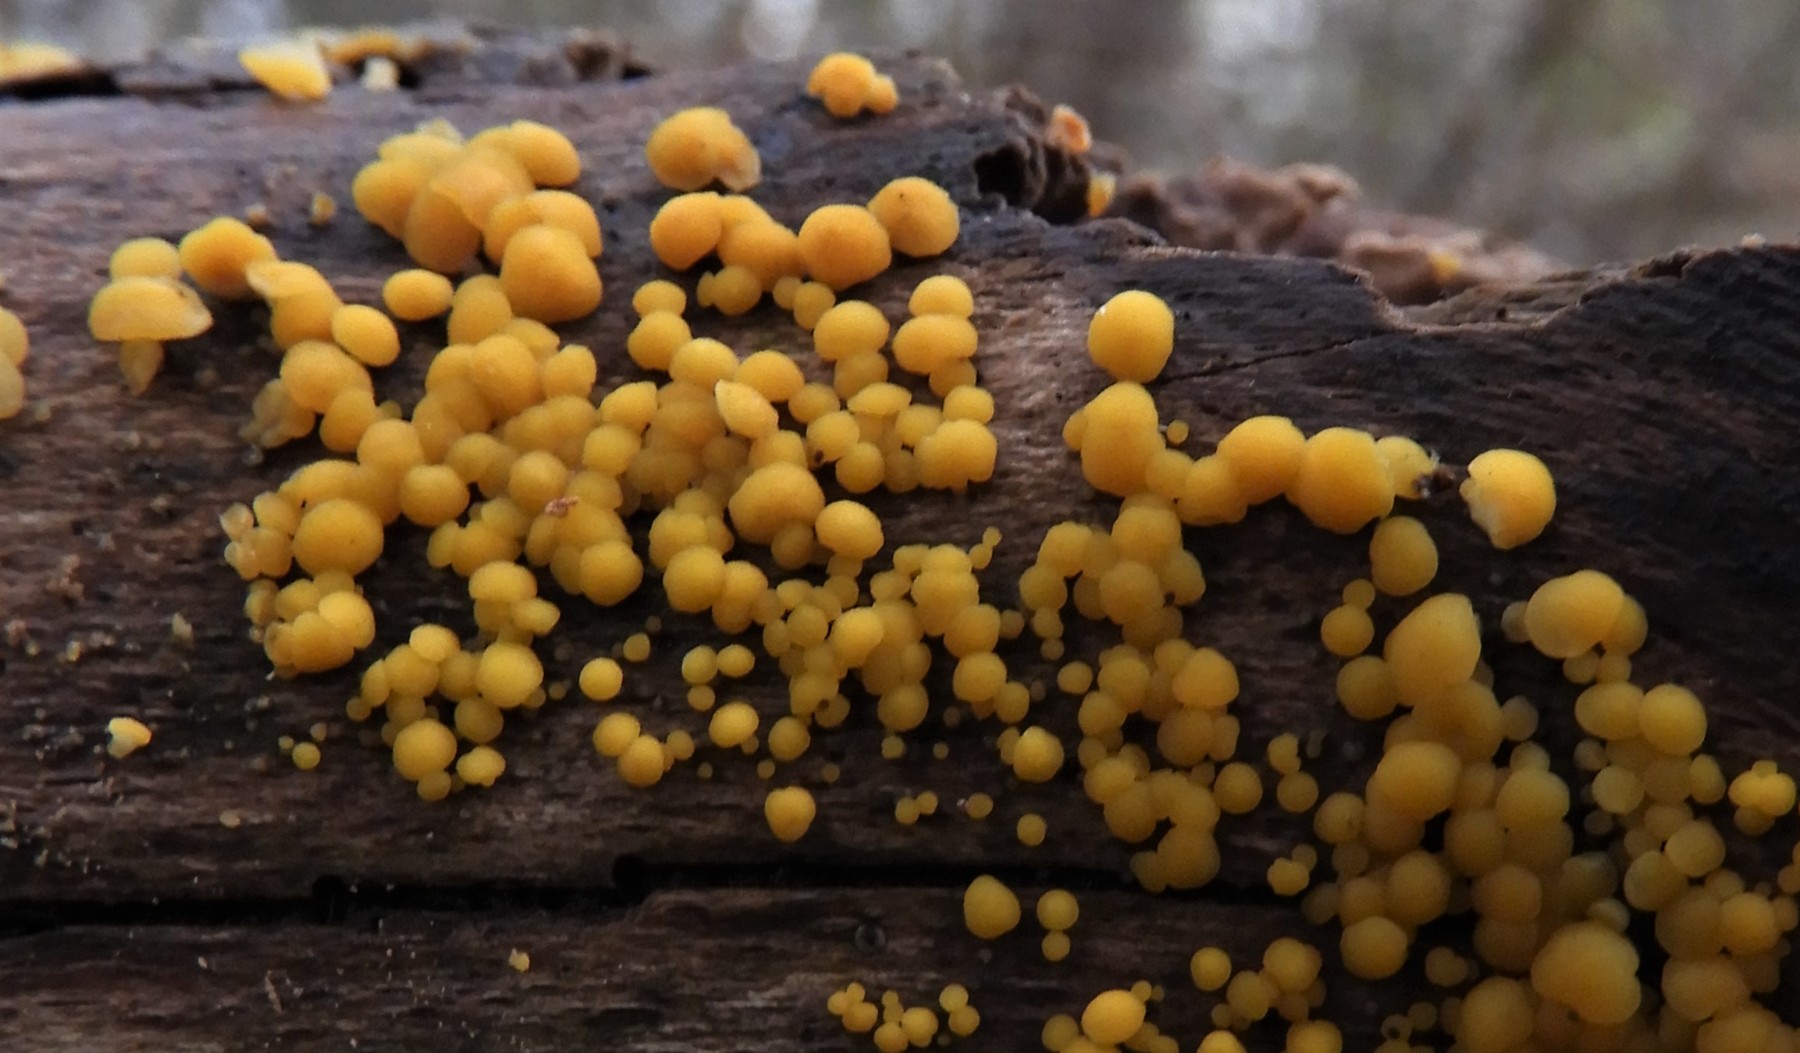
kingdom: Fungi
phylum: Ascomycota
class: Leotiomycetes
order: Helotiales
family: Pezizellaceae
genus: Calycina
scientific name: Calycina citrina
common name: almindelig gulskive
